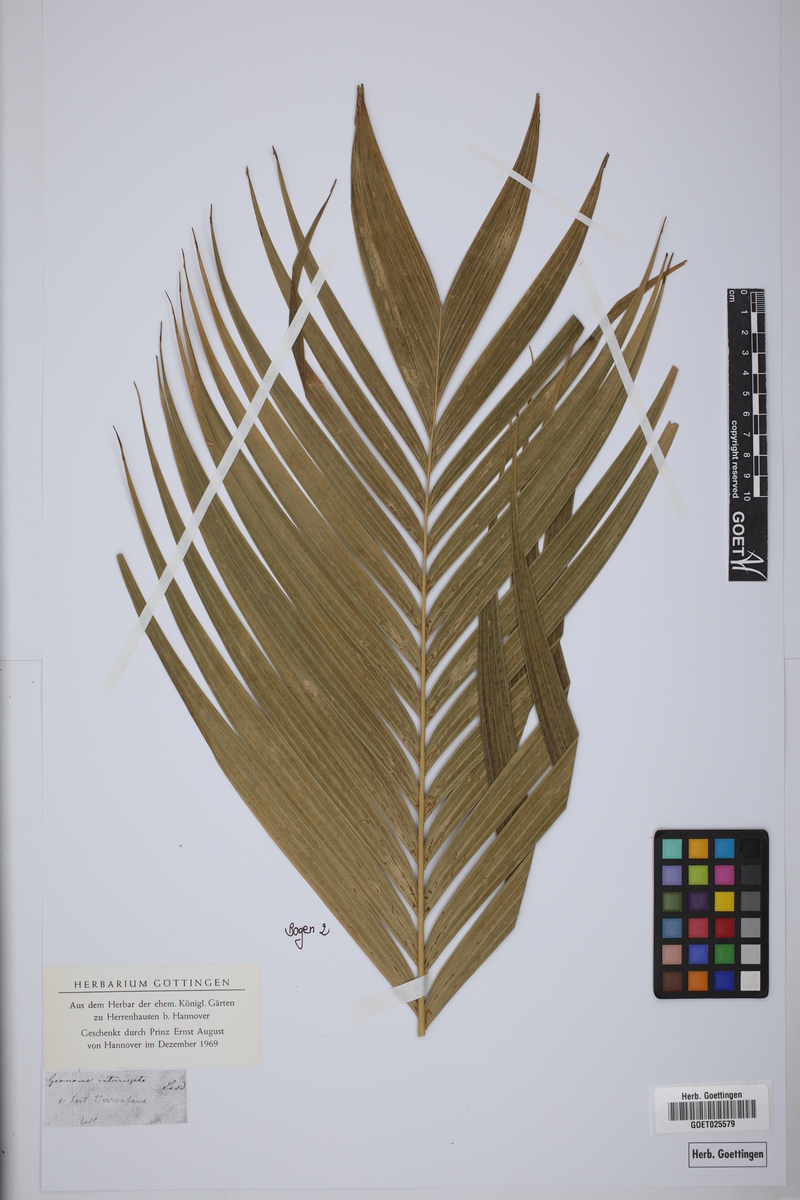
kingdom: Plantae
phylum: Tracheophyta
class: Liliopsida
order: Arecales
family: Arecaceae
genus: Geonoma
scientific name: Geonoma interrupta
